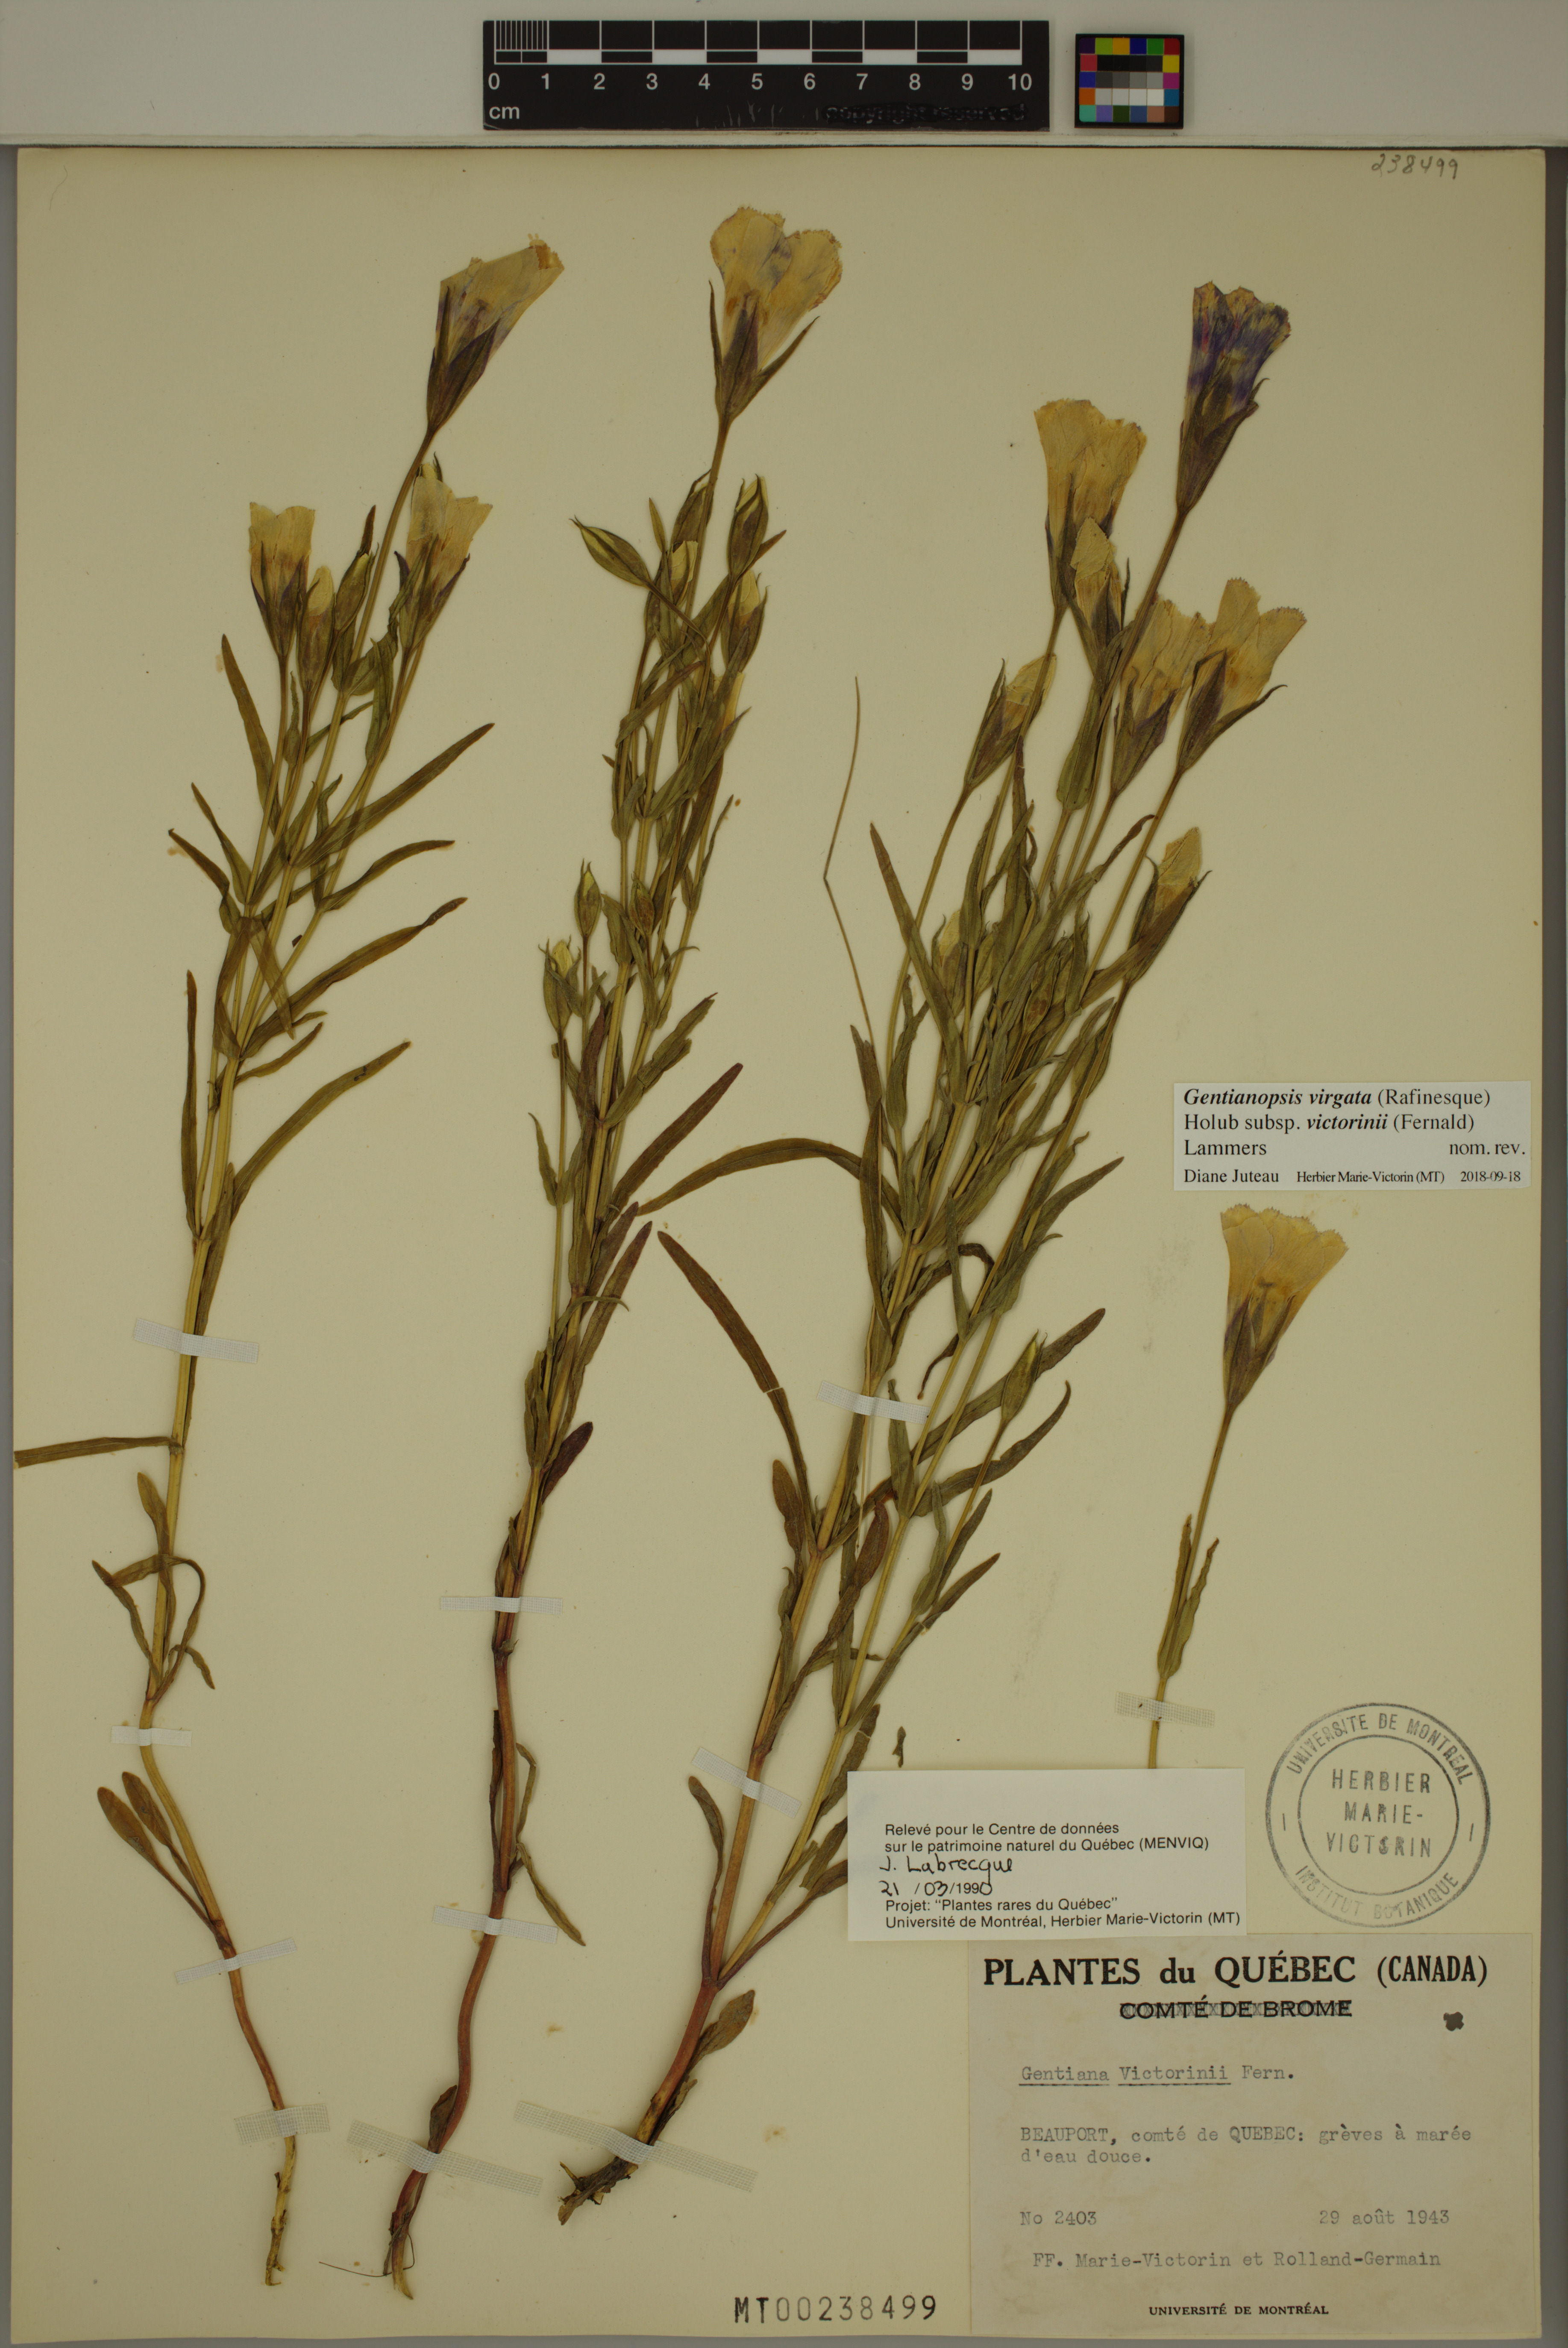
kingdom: Plantae
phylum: Tracheophyta
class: Magnoliopsida
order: Gentianales
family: Gentianaceae
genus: Gentianopsis
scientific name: Gentianopsis victorinii
